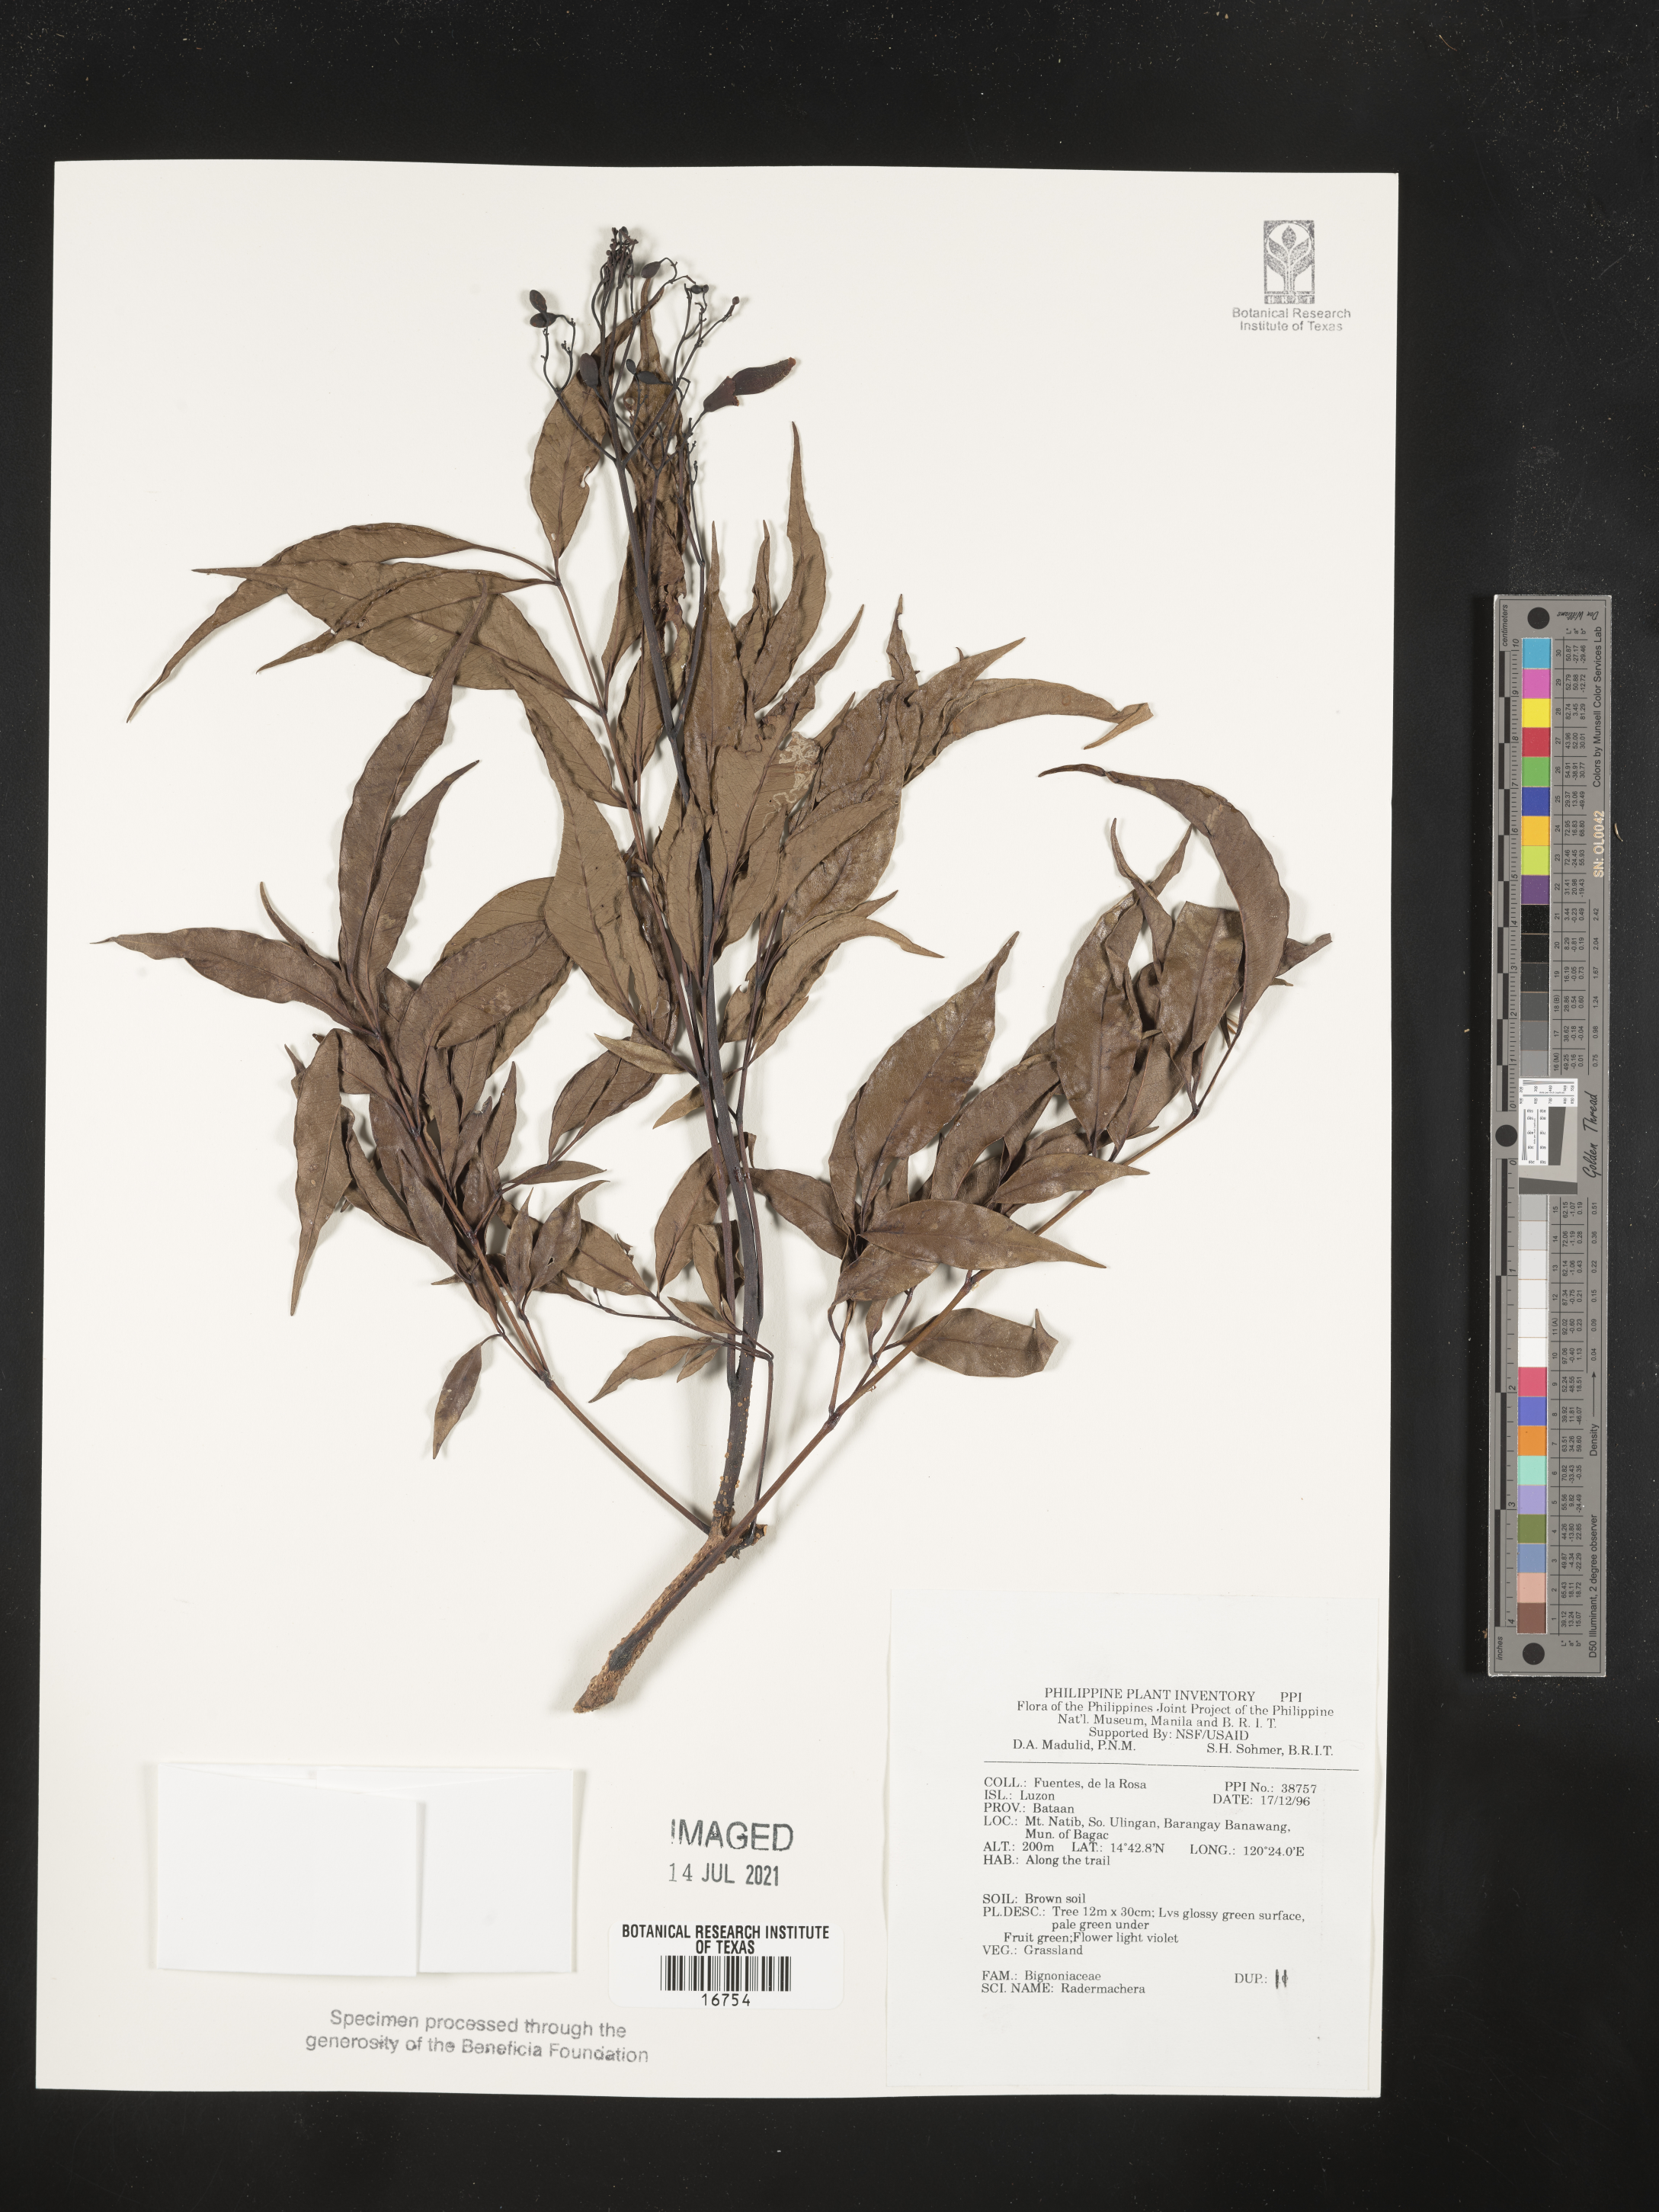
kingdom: Plantae
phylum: Tracheophyta
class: Magnoliopsida
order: Lamiales
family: Bignoniaceae
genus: Radermachera
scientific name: Radermachera
